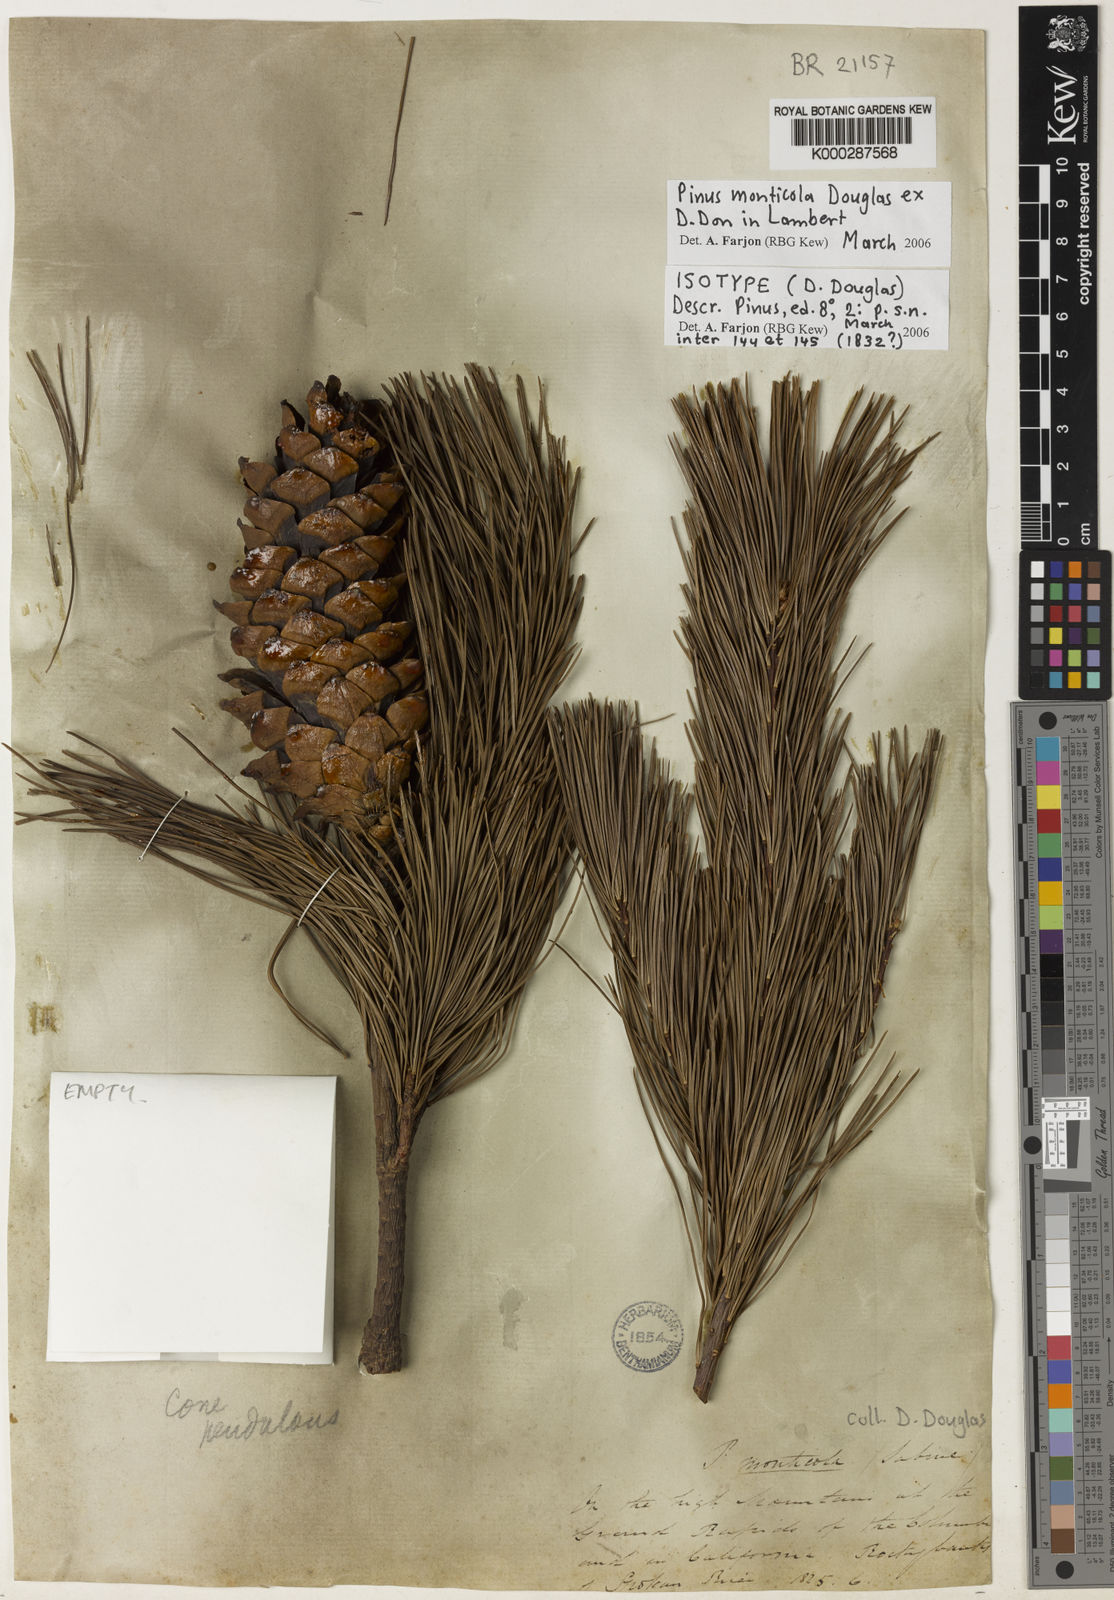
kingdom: Plantae
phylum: Tracheophyta
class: Pinopsida
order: Pinales
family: Pinaceae
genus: Pinus
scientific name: Pinus monticola
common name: Western white pine
